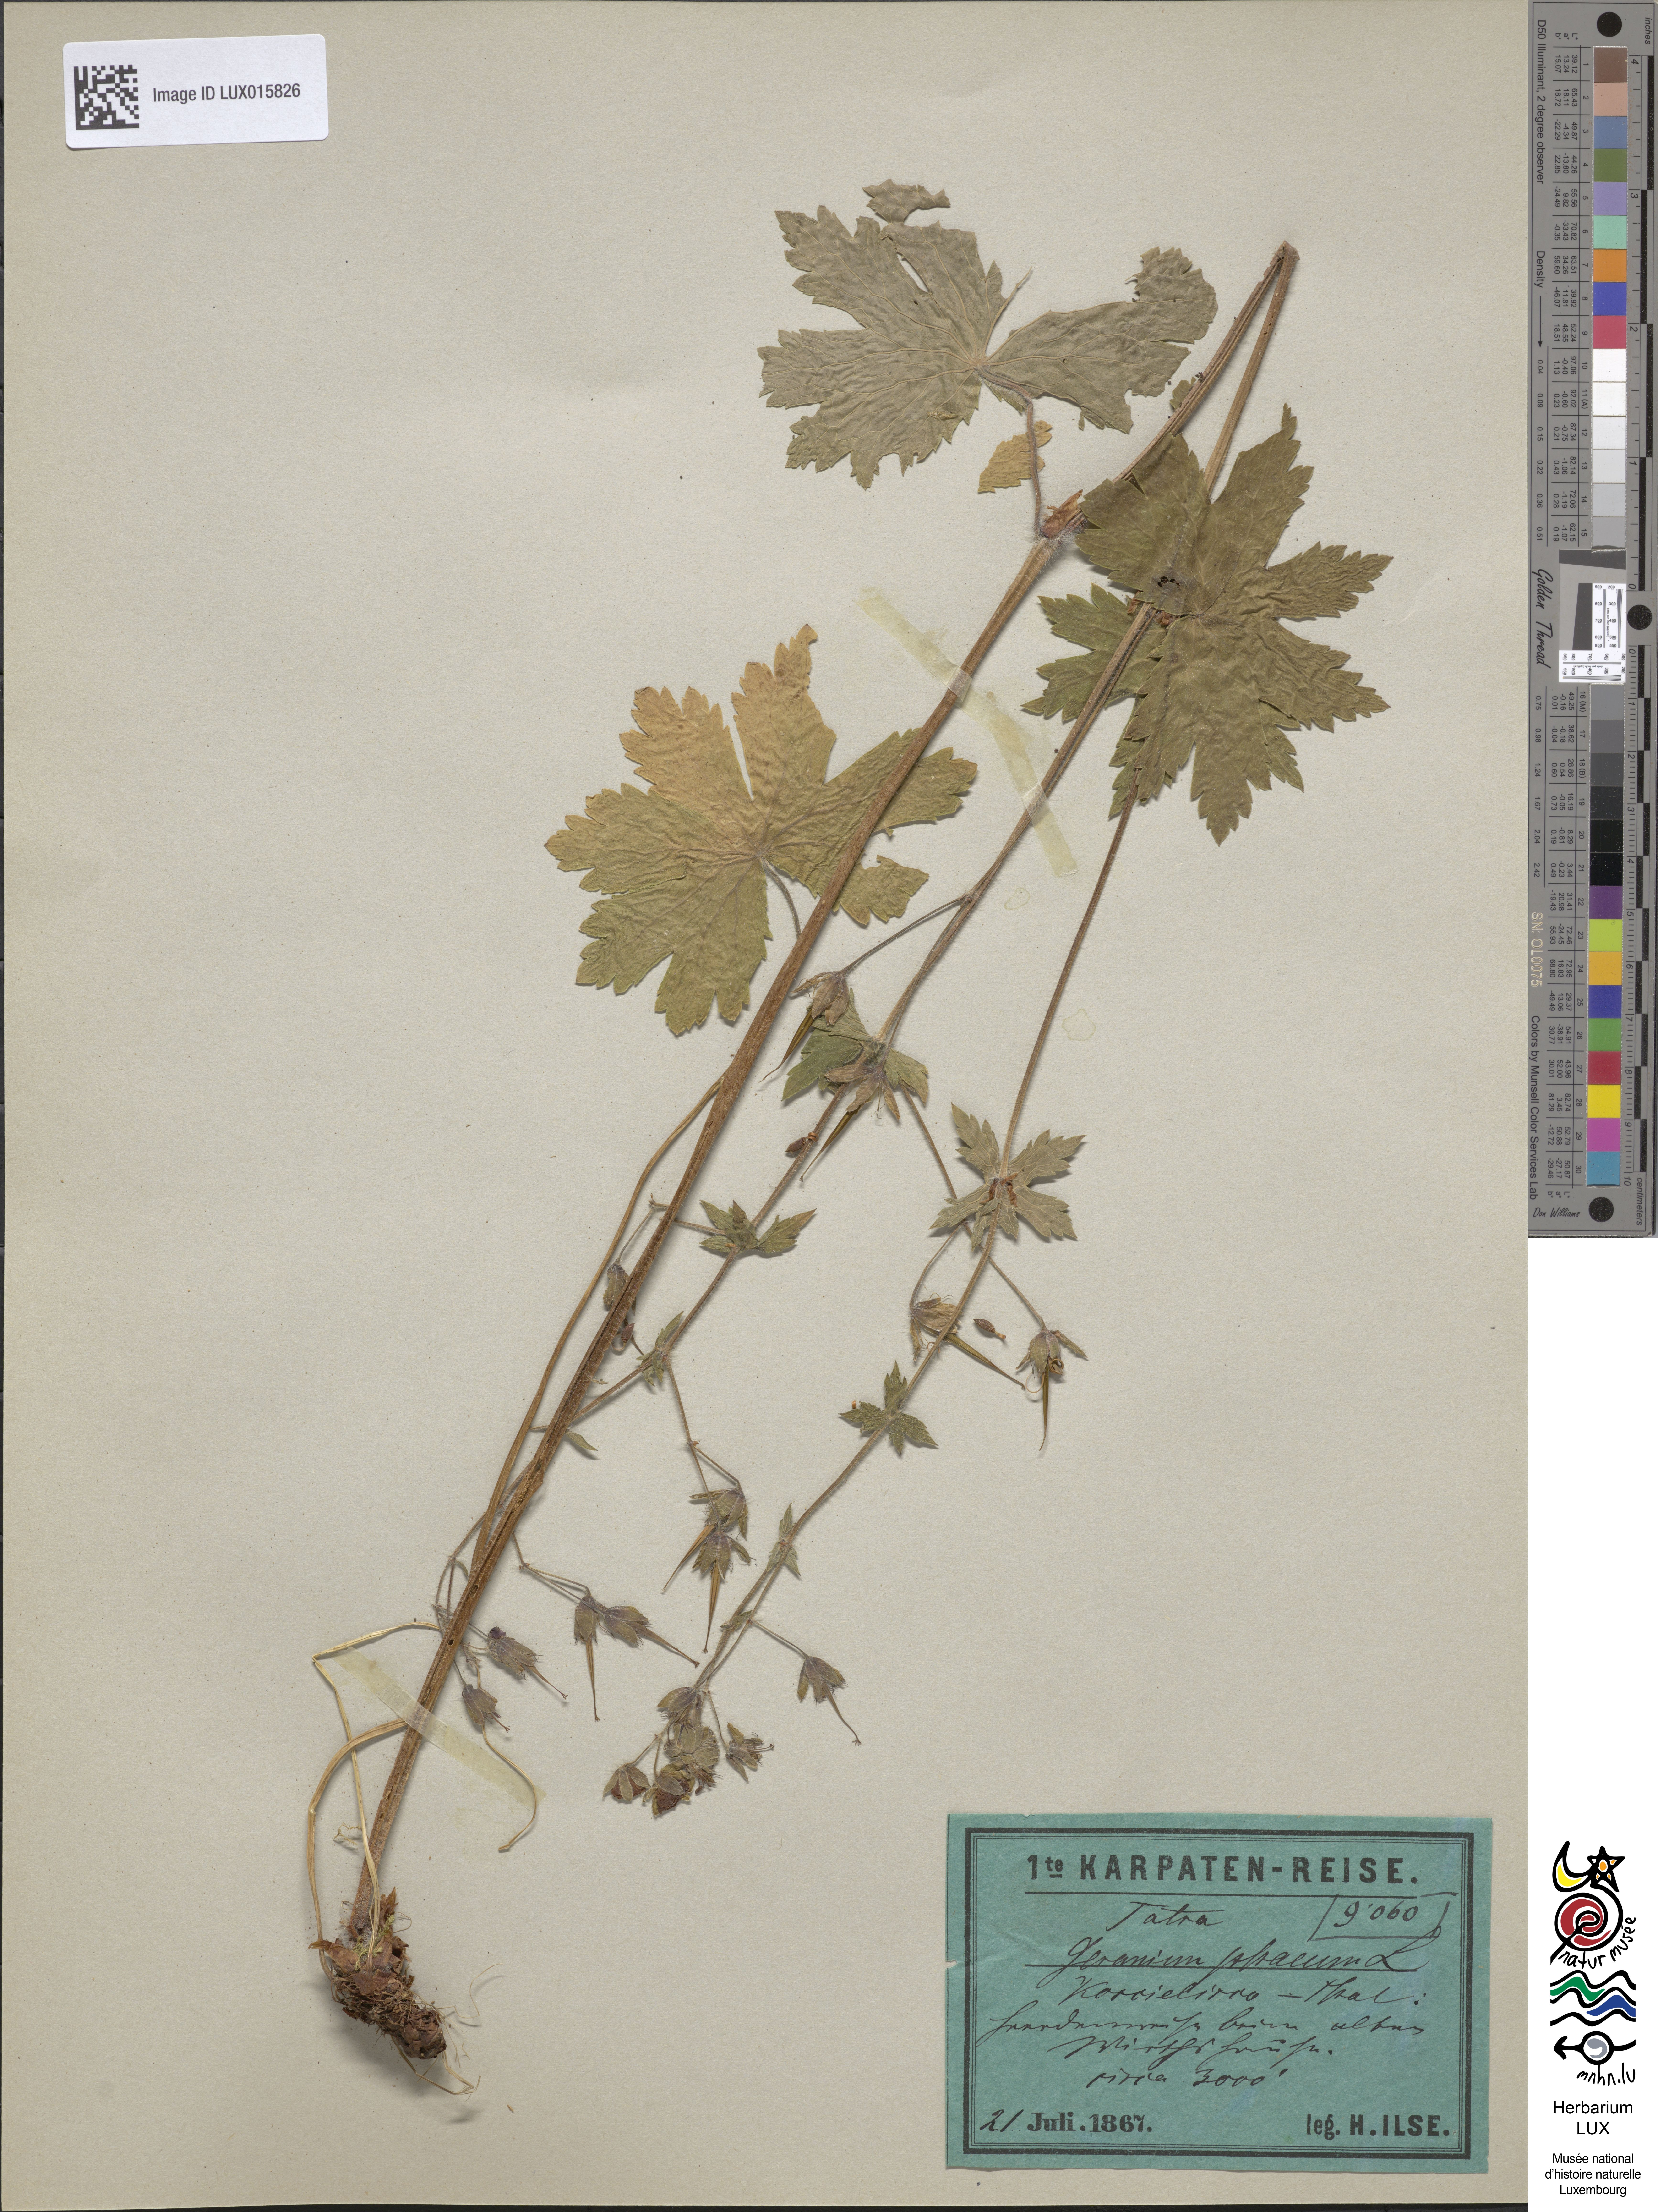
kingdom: Plantae
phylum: Tracheophyta
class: Magnoliopsida
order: Geraniales
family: Geraniaceae
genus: Geranium
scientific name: Geranium phaeum
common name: Dusky crane's-bill
